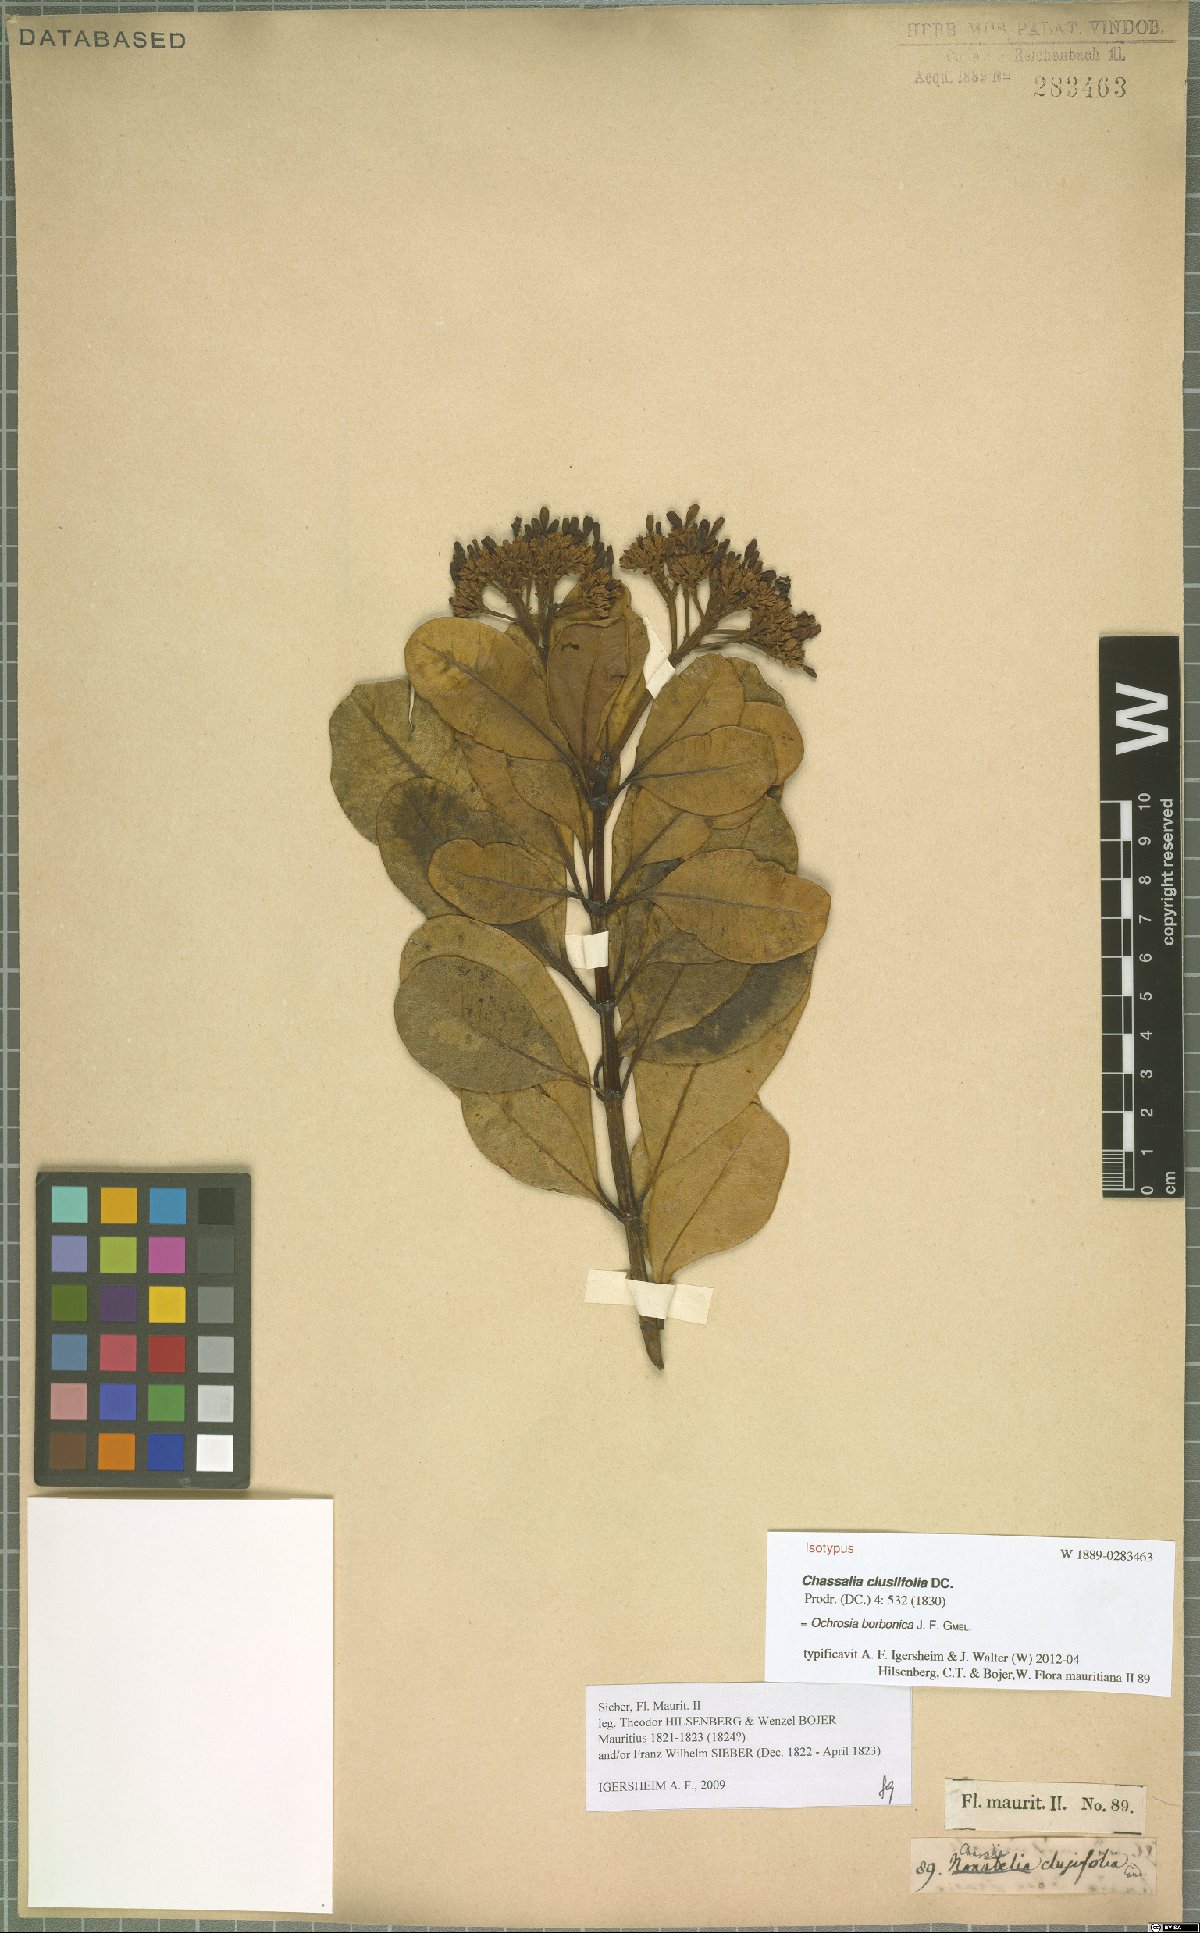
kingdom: Plantae
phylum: Tracheophyta
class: Magnoliopsida
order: Gentianales
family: Apocynaceae
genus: Ochrosia
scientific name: Ochrosia borbonica
